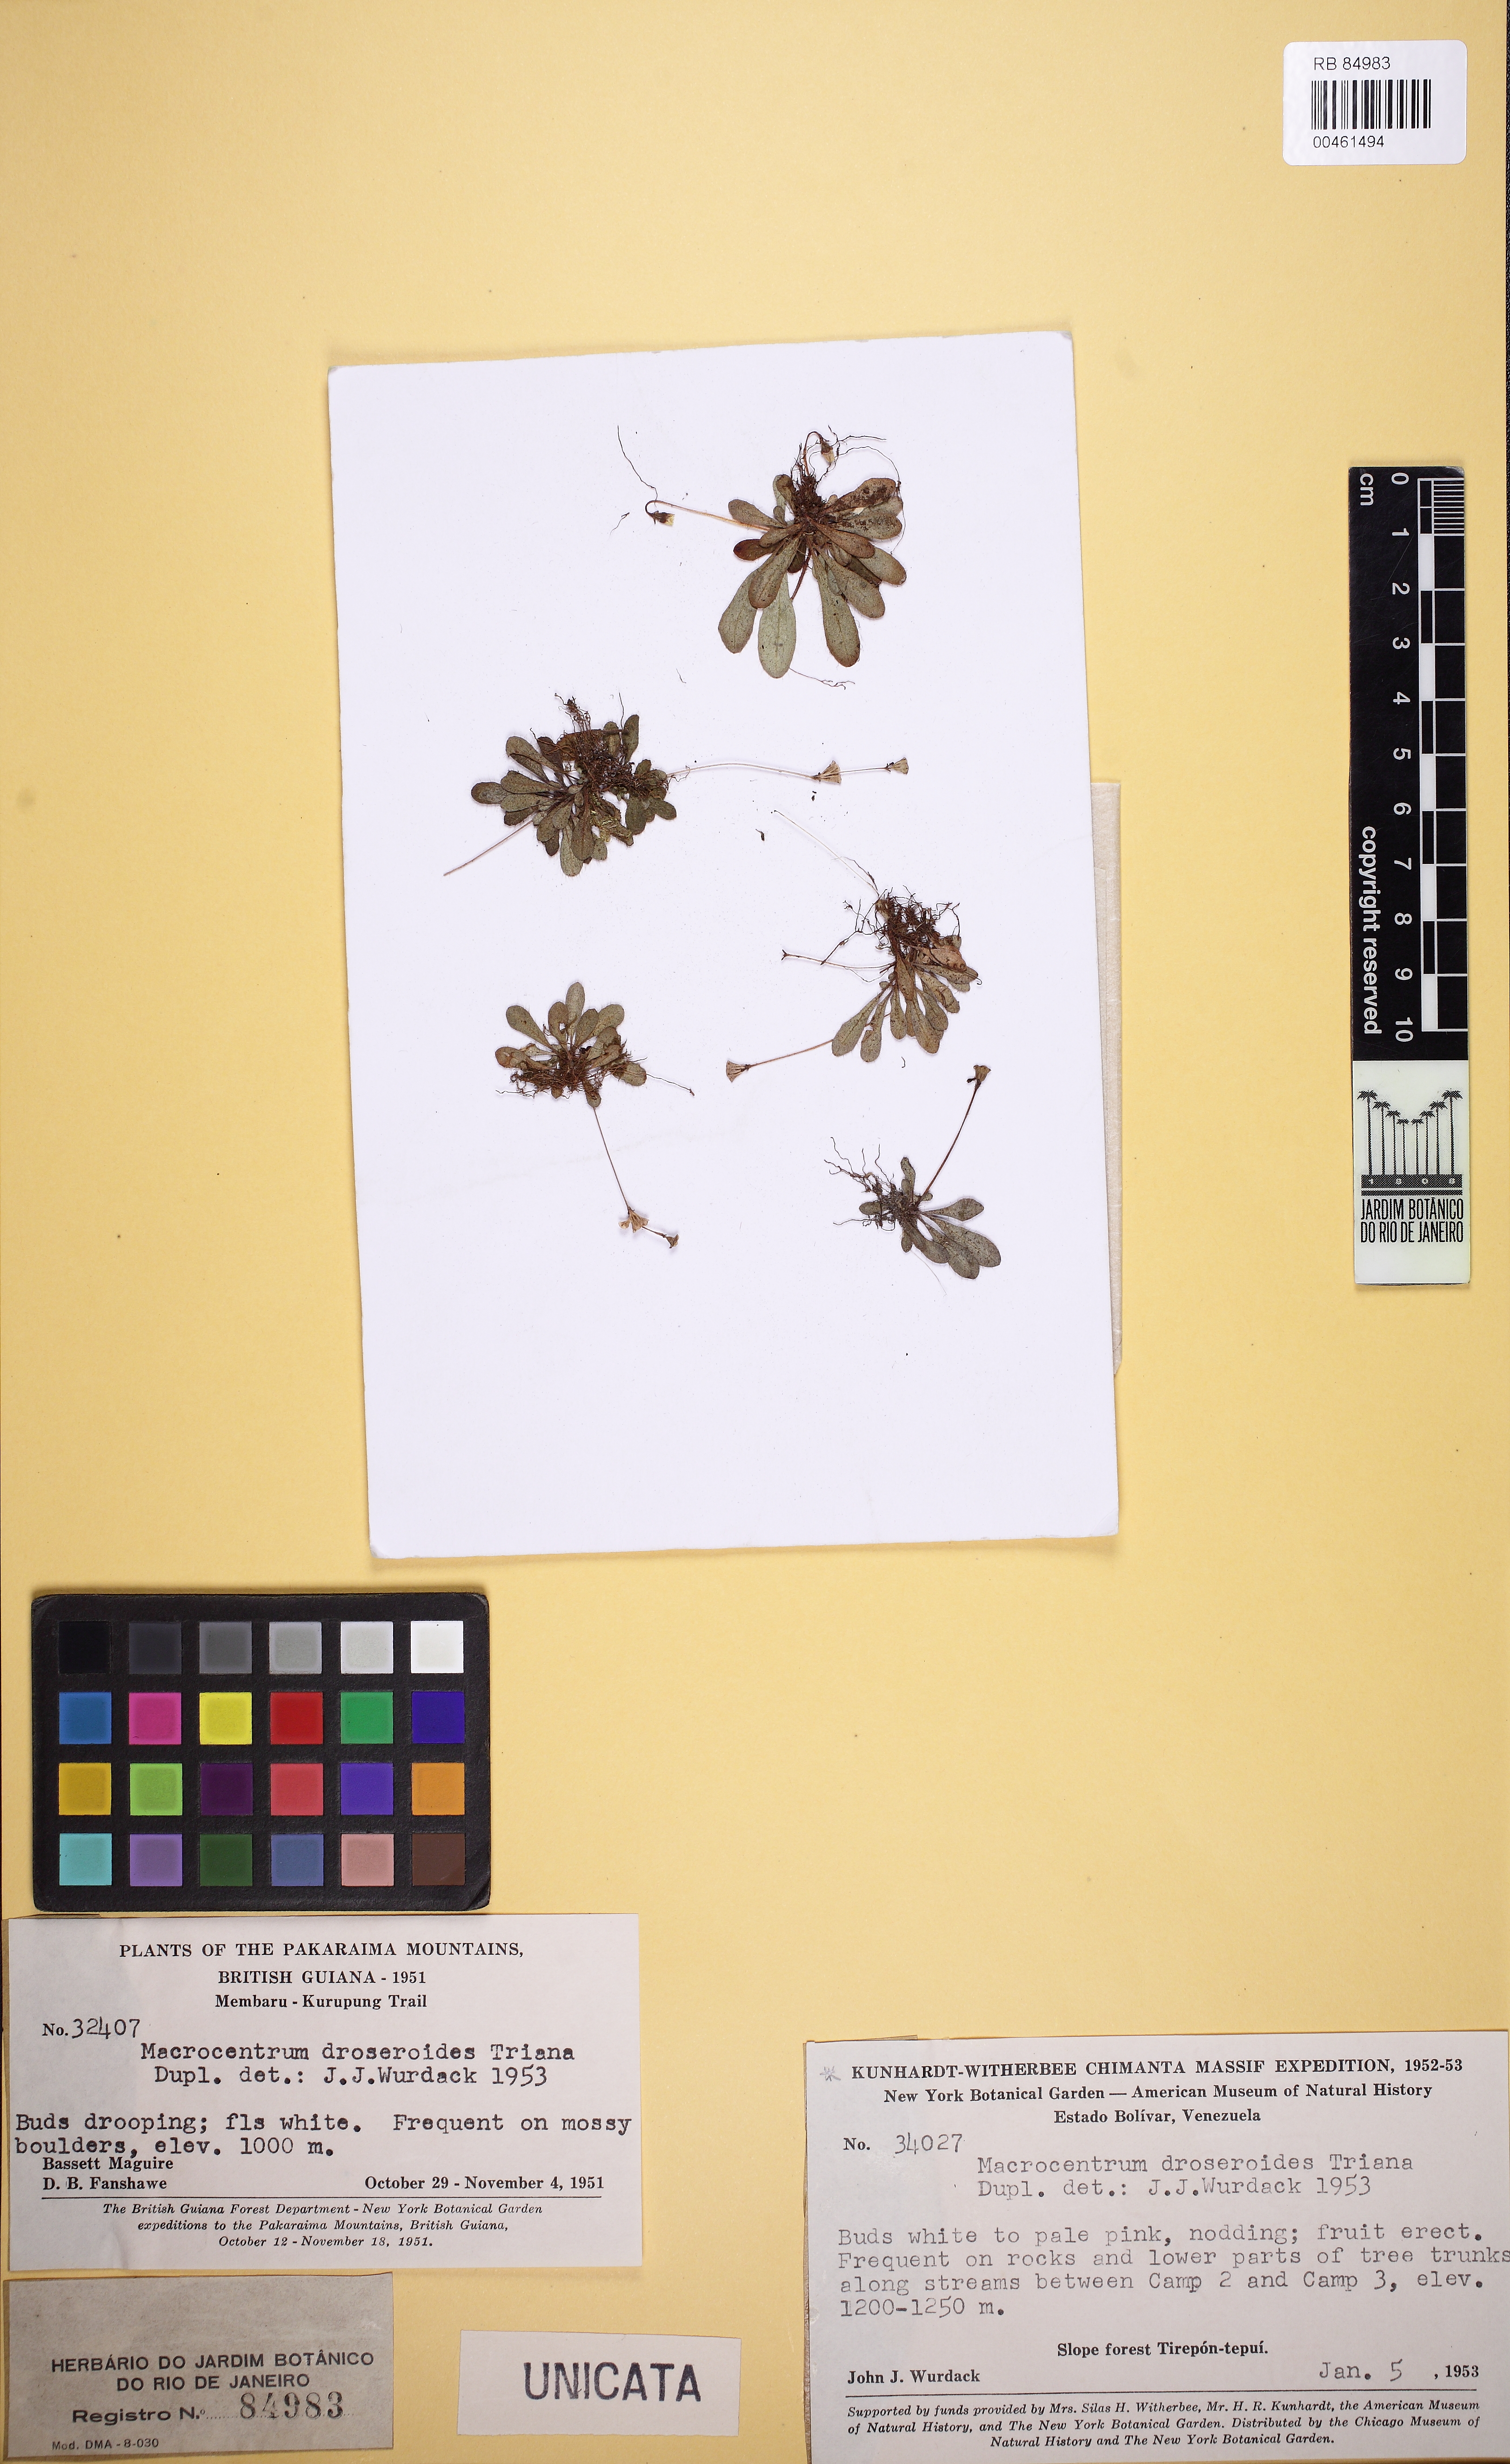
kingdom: Plantae
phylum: Tracheophyta
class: Magnoliopsida
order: Myrtales
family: Melastomataceae
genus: Macrocentrum
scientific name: Macrocentrum droseroides
